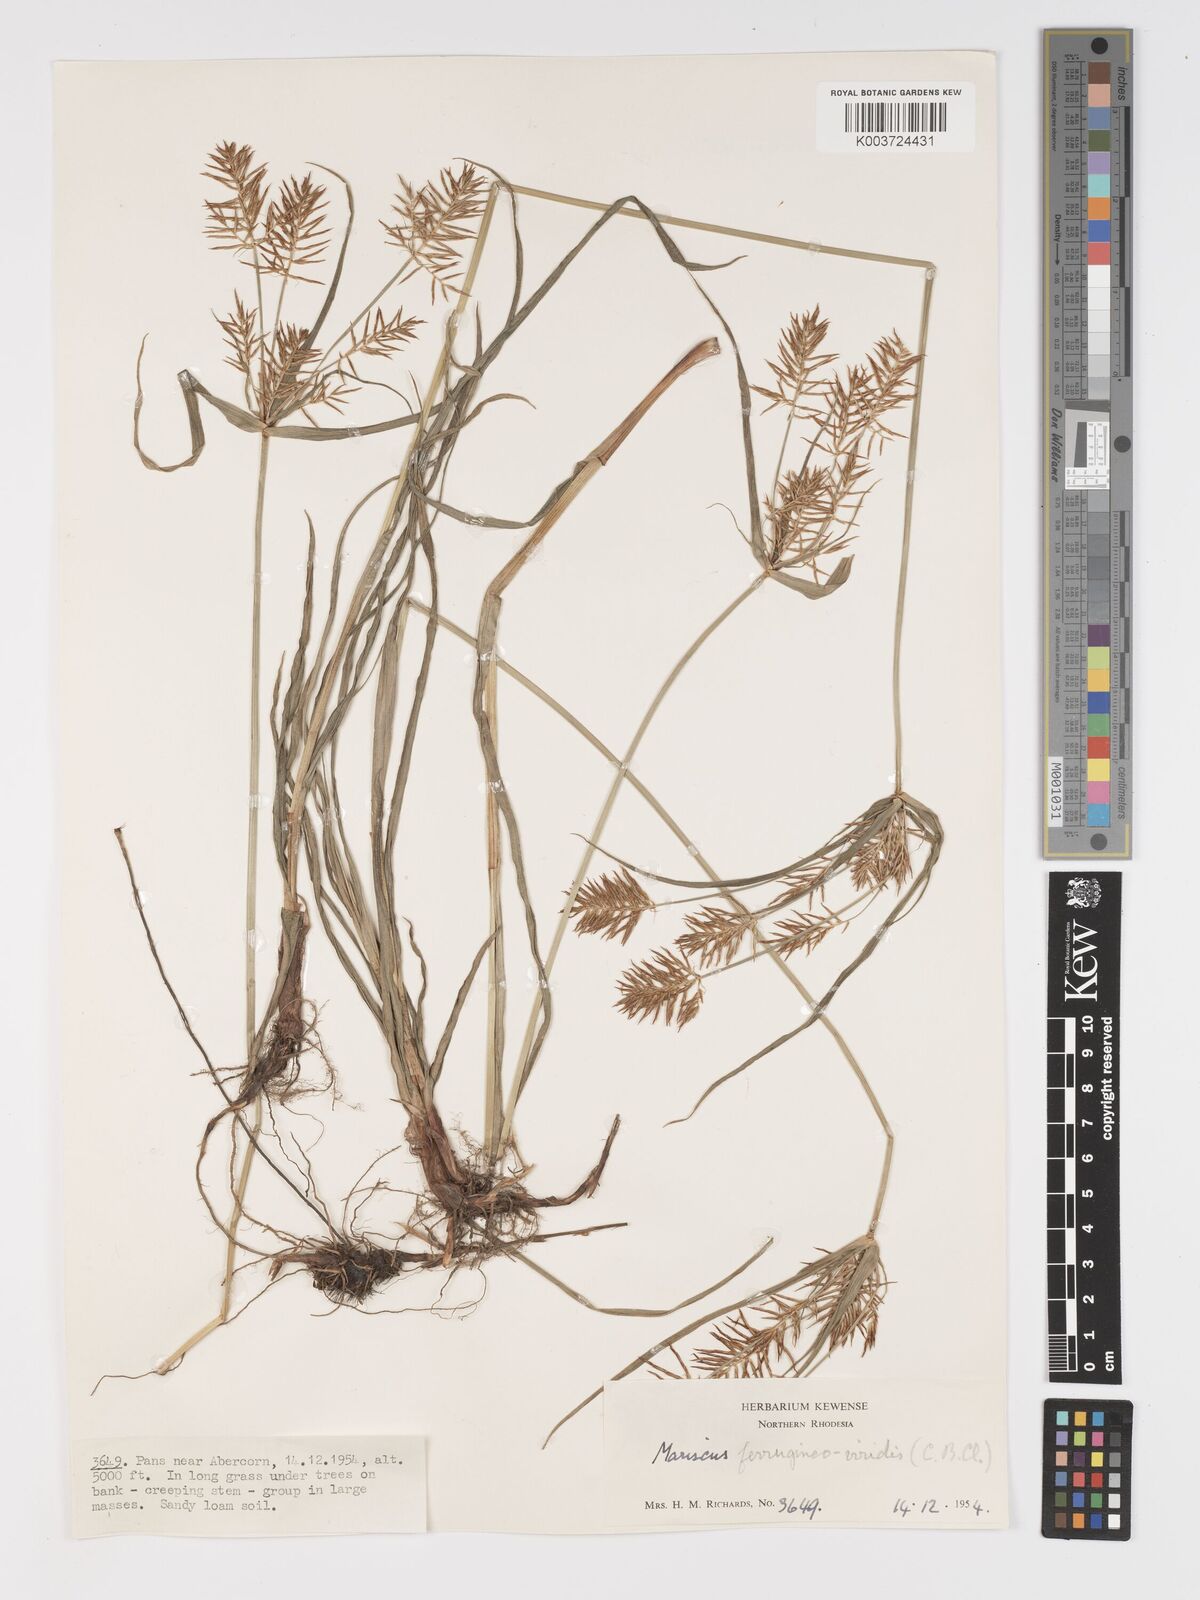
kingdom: Plantae
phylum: Tracheophyta
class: Liliopsida
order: Poales
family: Cyperaceae
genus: Cyperus
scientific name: Cyperus ferrugineoviridis
